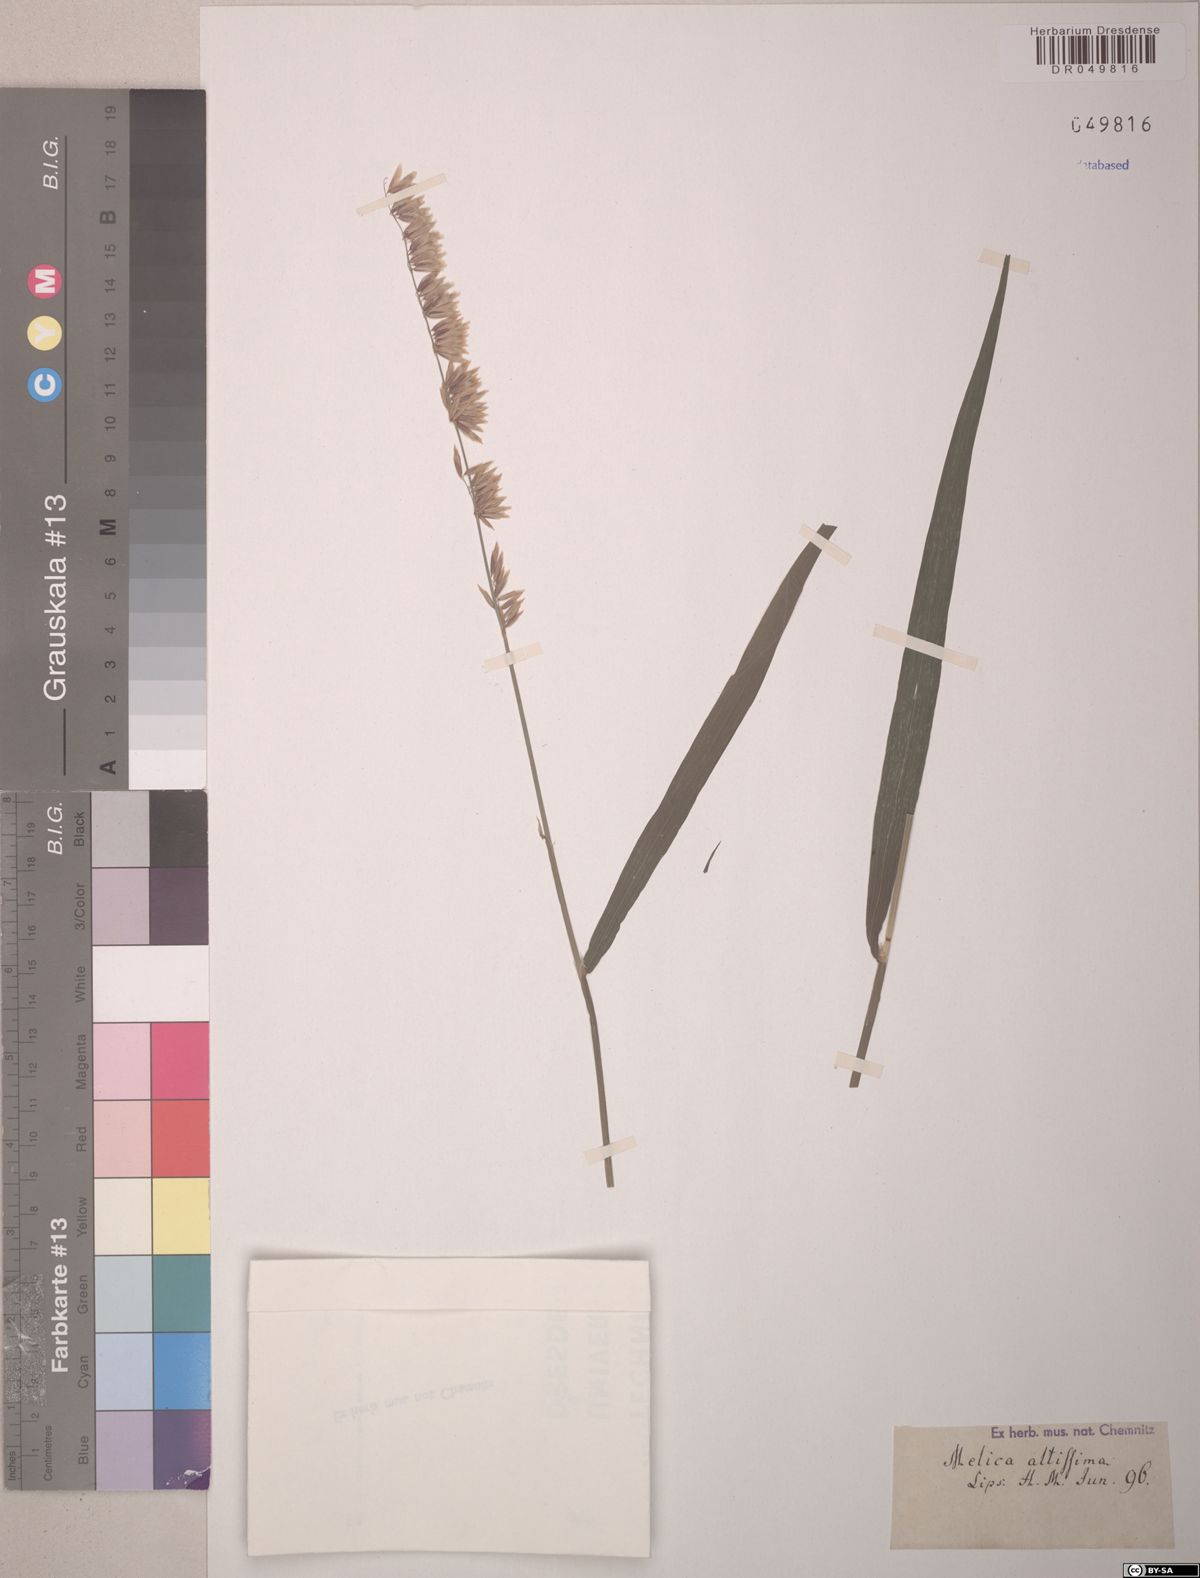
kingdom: Plantae
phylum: Tracheophyta
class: Liliopsida
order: Poales
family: Poaceae
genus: Melica
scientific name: Melica altissima
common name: Siberian melicgrass
